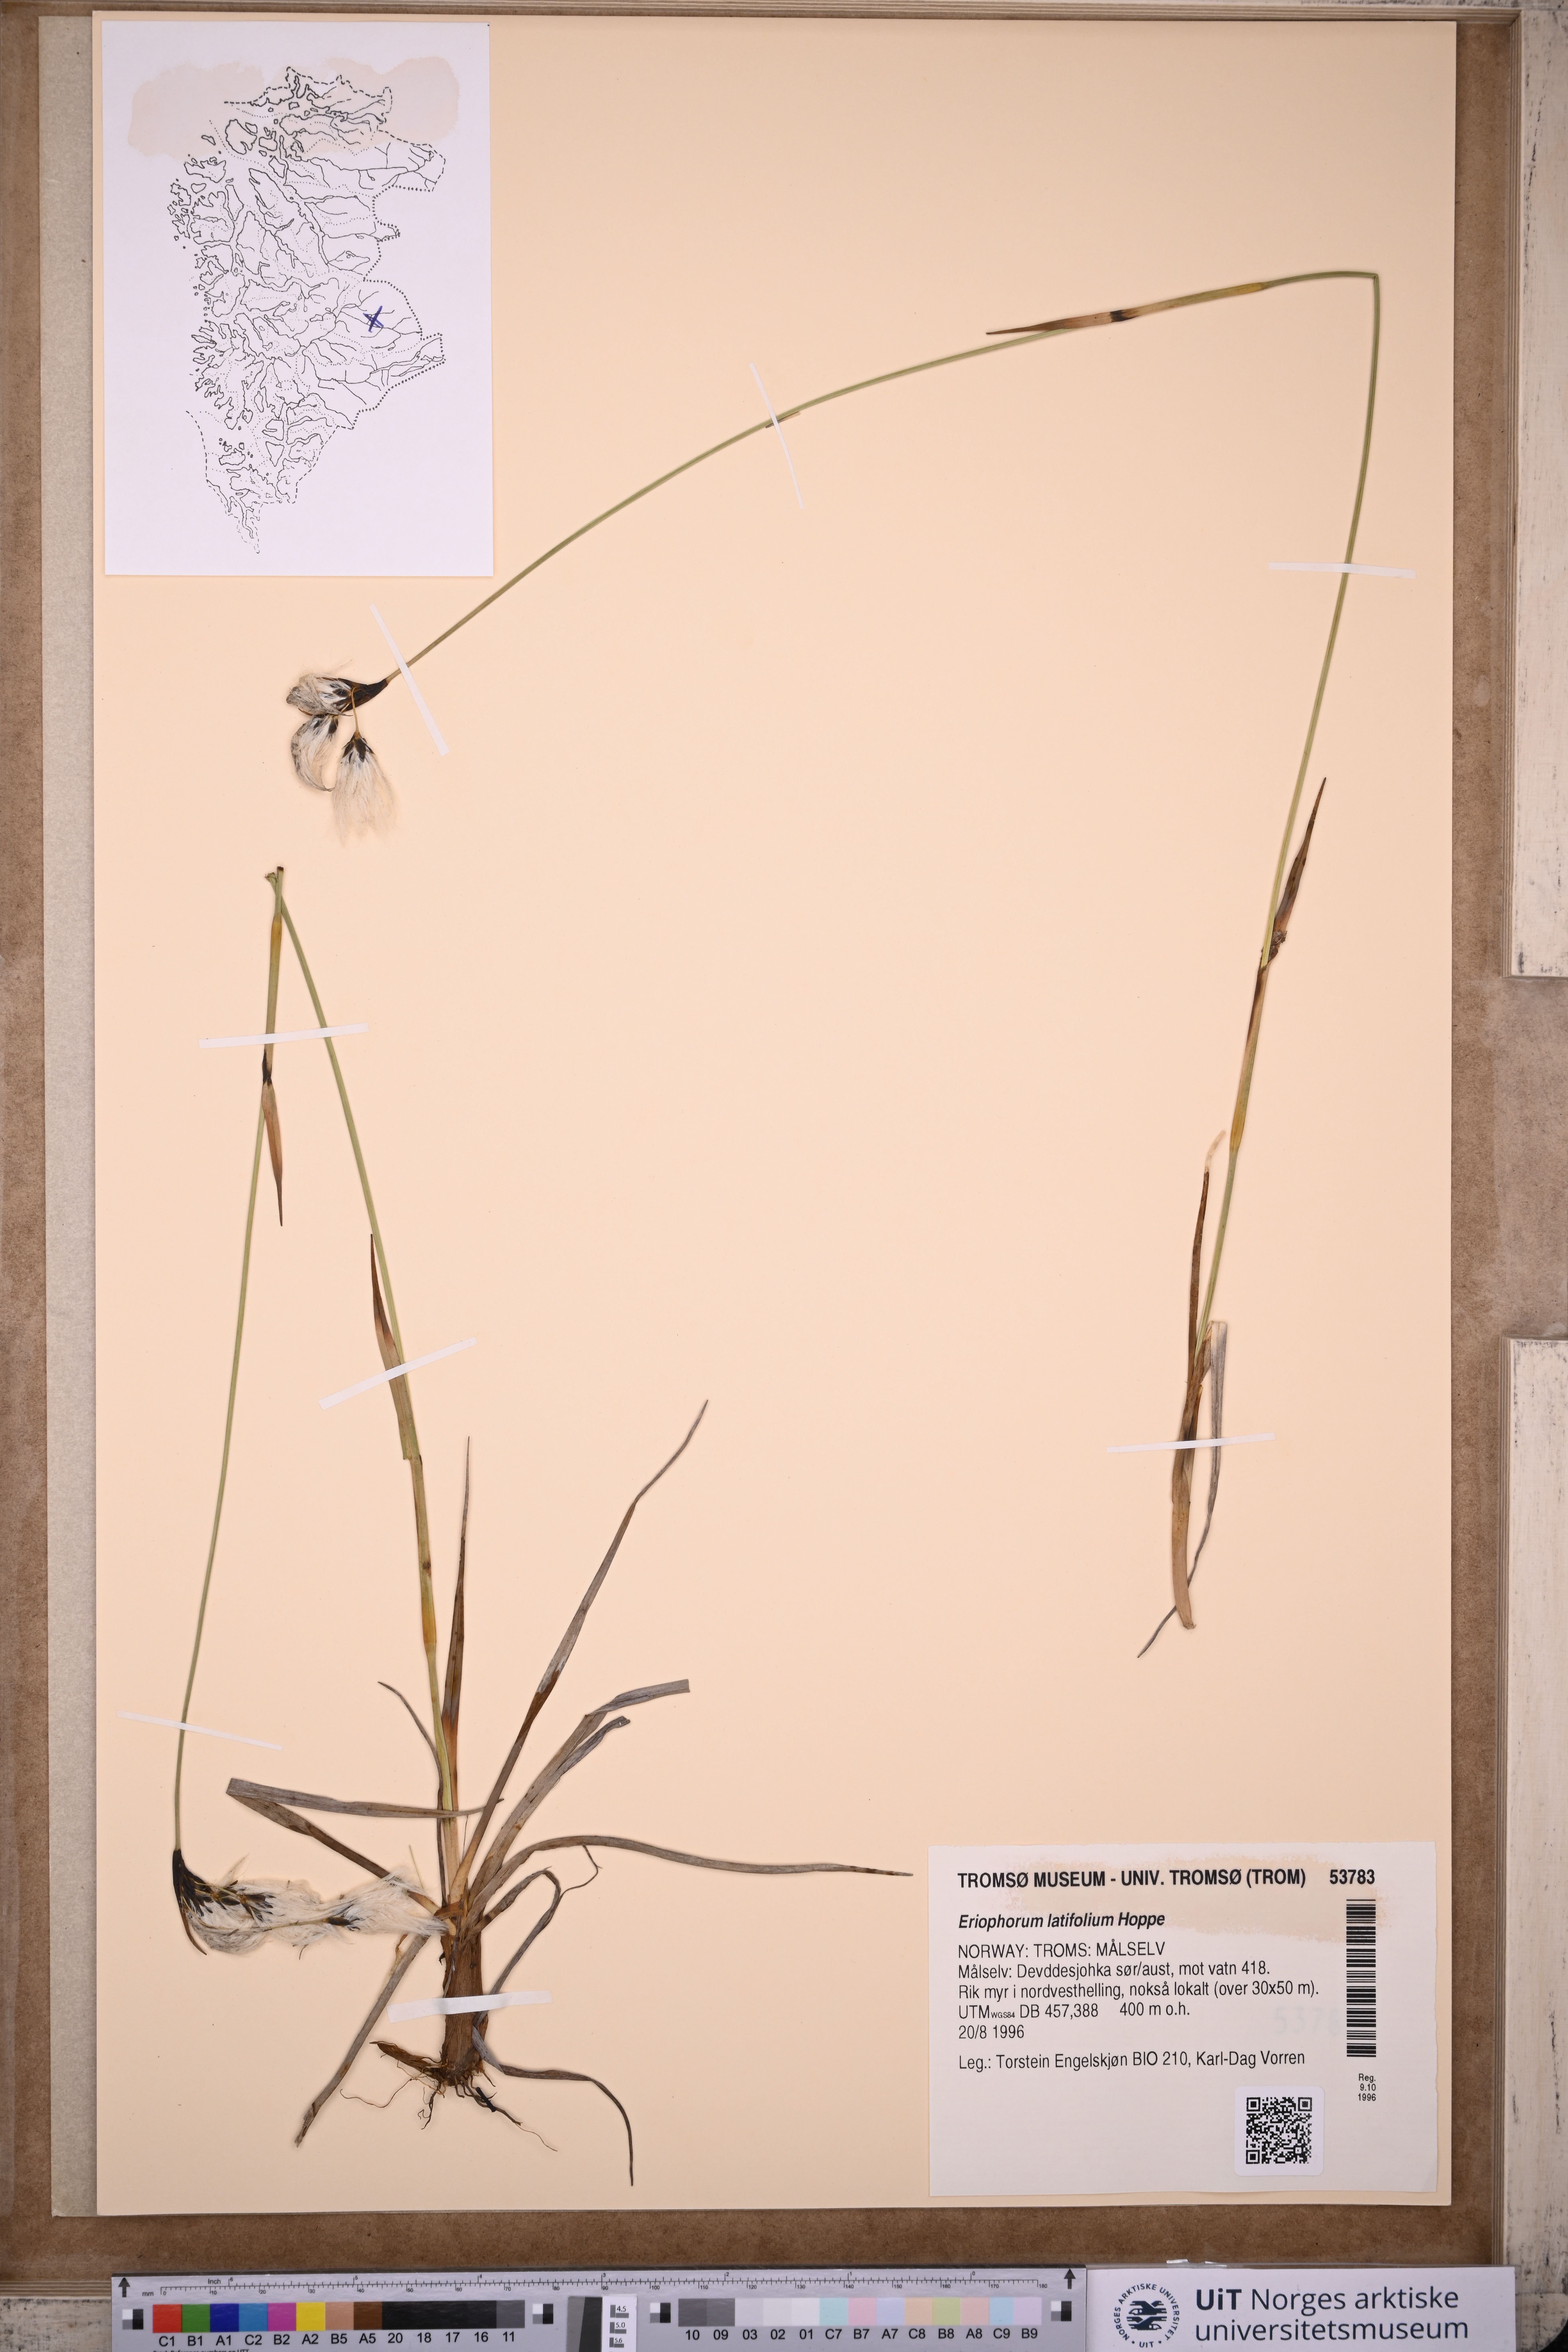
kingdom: Plantae
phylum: Tracheophyta
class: Liliopsida
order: Poales
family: Cyperaceae
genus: Eriophorum
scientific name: Eriophorum latifolium
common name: Broad-leaved cottongrass
